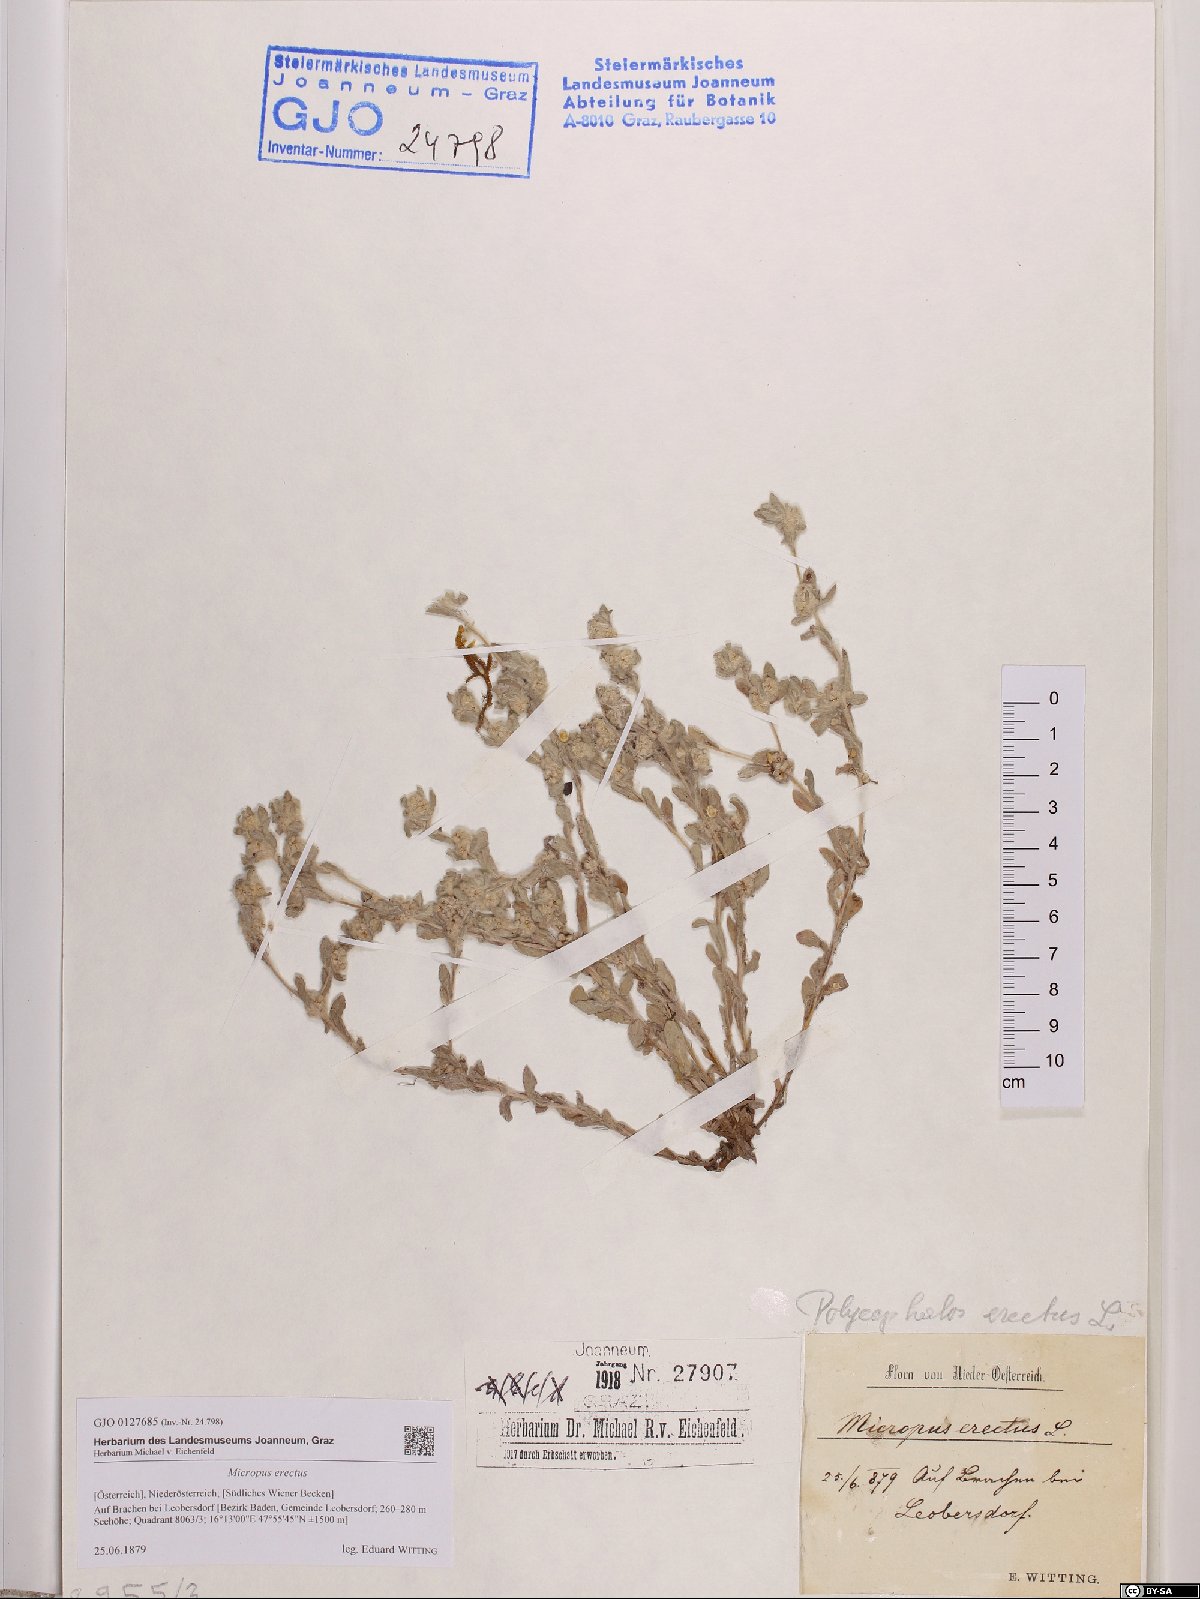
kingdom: Plantae
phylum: Tracheophyta
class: Magnoliopsida
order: Asterales
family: Asteraceae
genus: Bombycilaena
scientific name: Bombycilaena erecta
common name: Micropus
